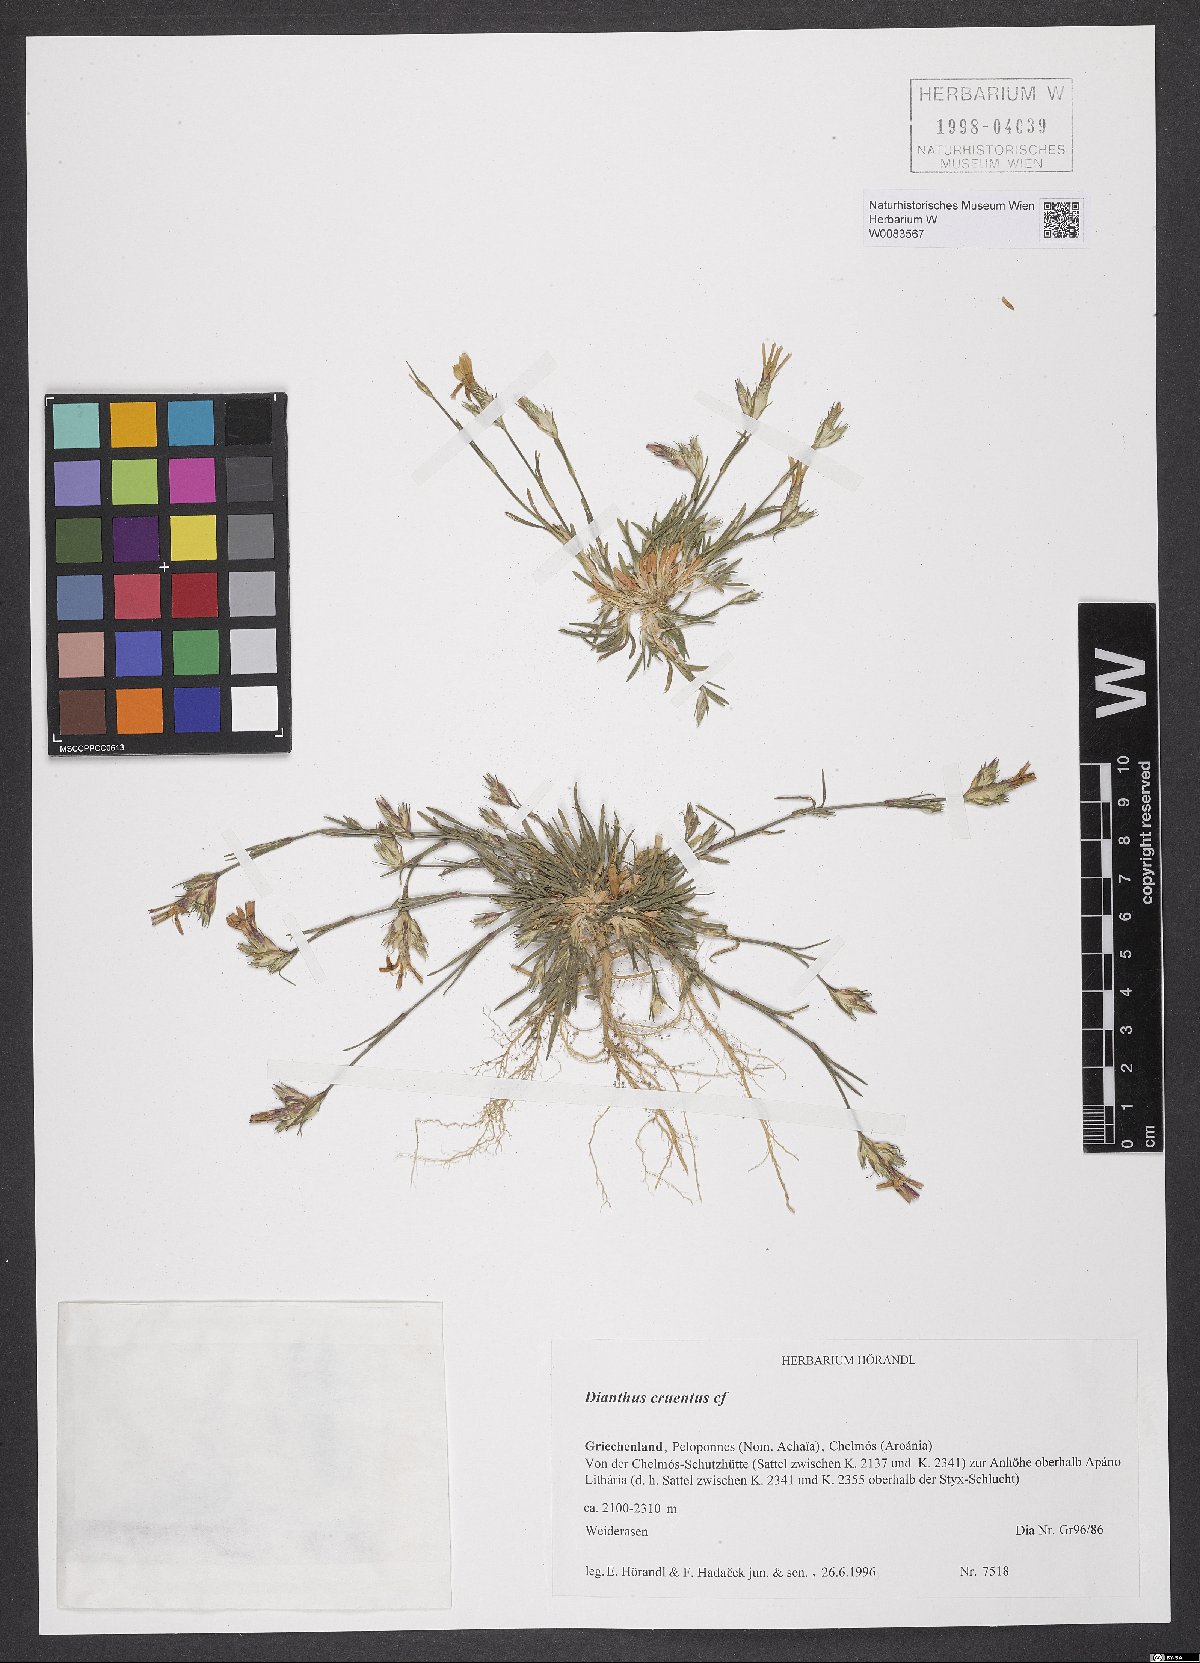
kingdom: Plantae
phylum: Tracheophyta
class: Magnoliopsida
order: Caryophyllales
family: Caryophyllaceae
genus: Dianthus
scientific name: Dianthus cruentus
